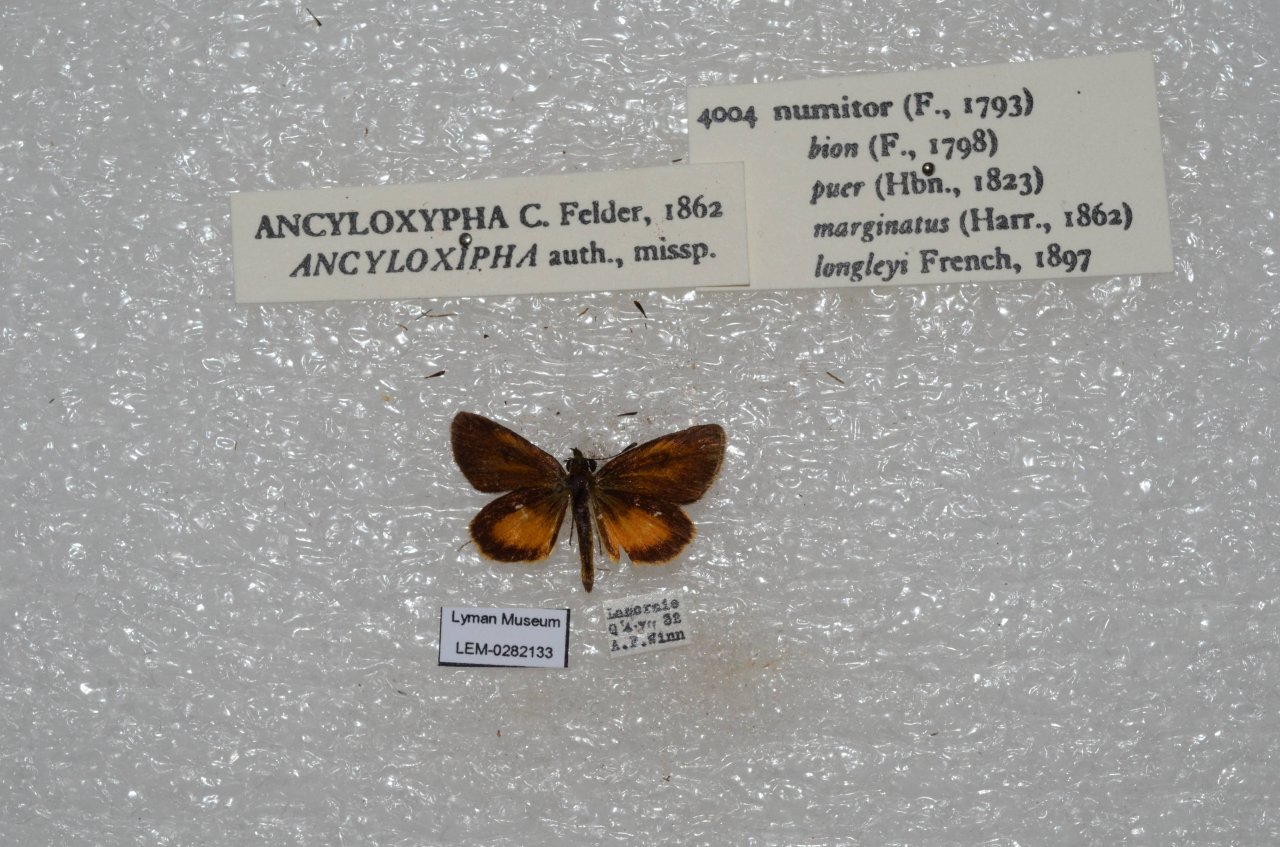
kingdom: Animalia
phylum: Arthropoda
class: Insecta
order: Lepidoptera
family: Hesperiidae
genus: Ancyloxypha
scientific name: Ancyloxypha numitor
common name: Least Skipper
